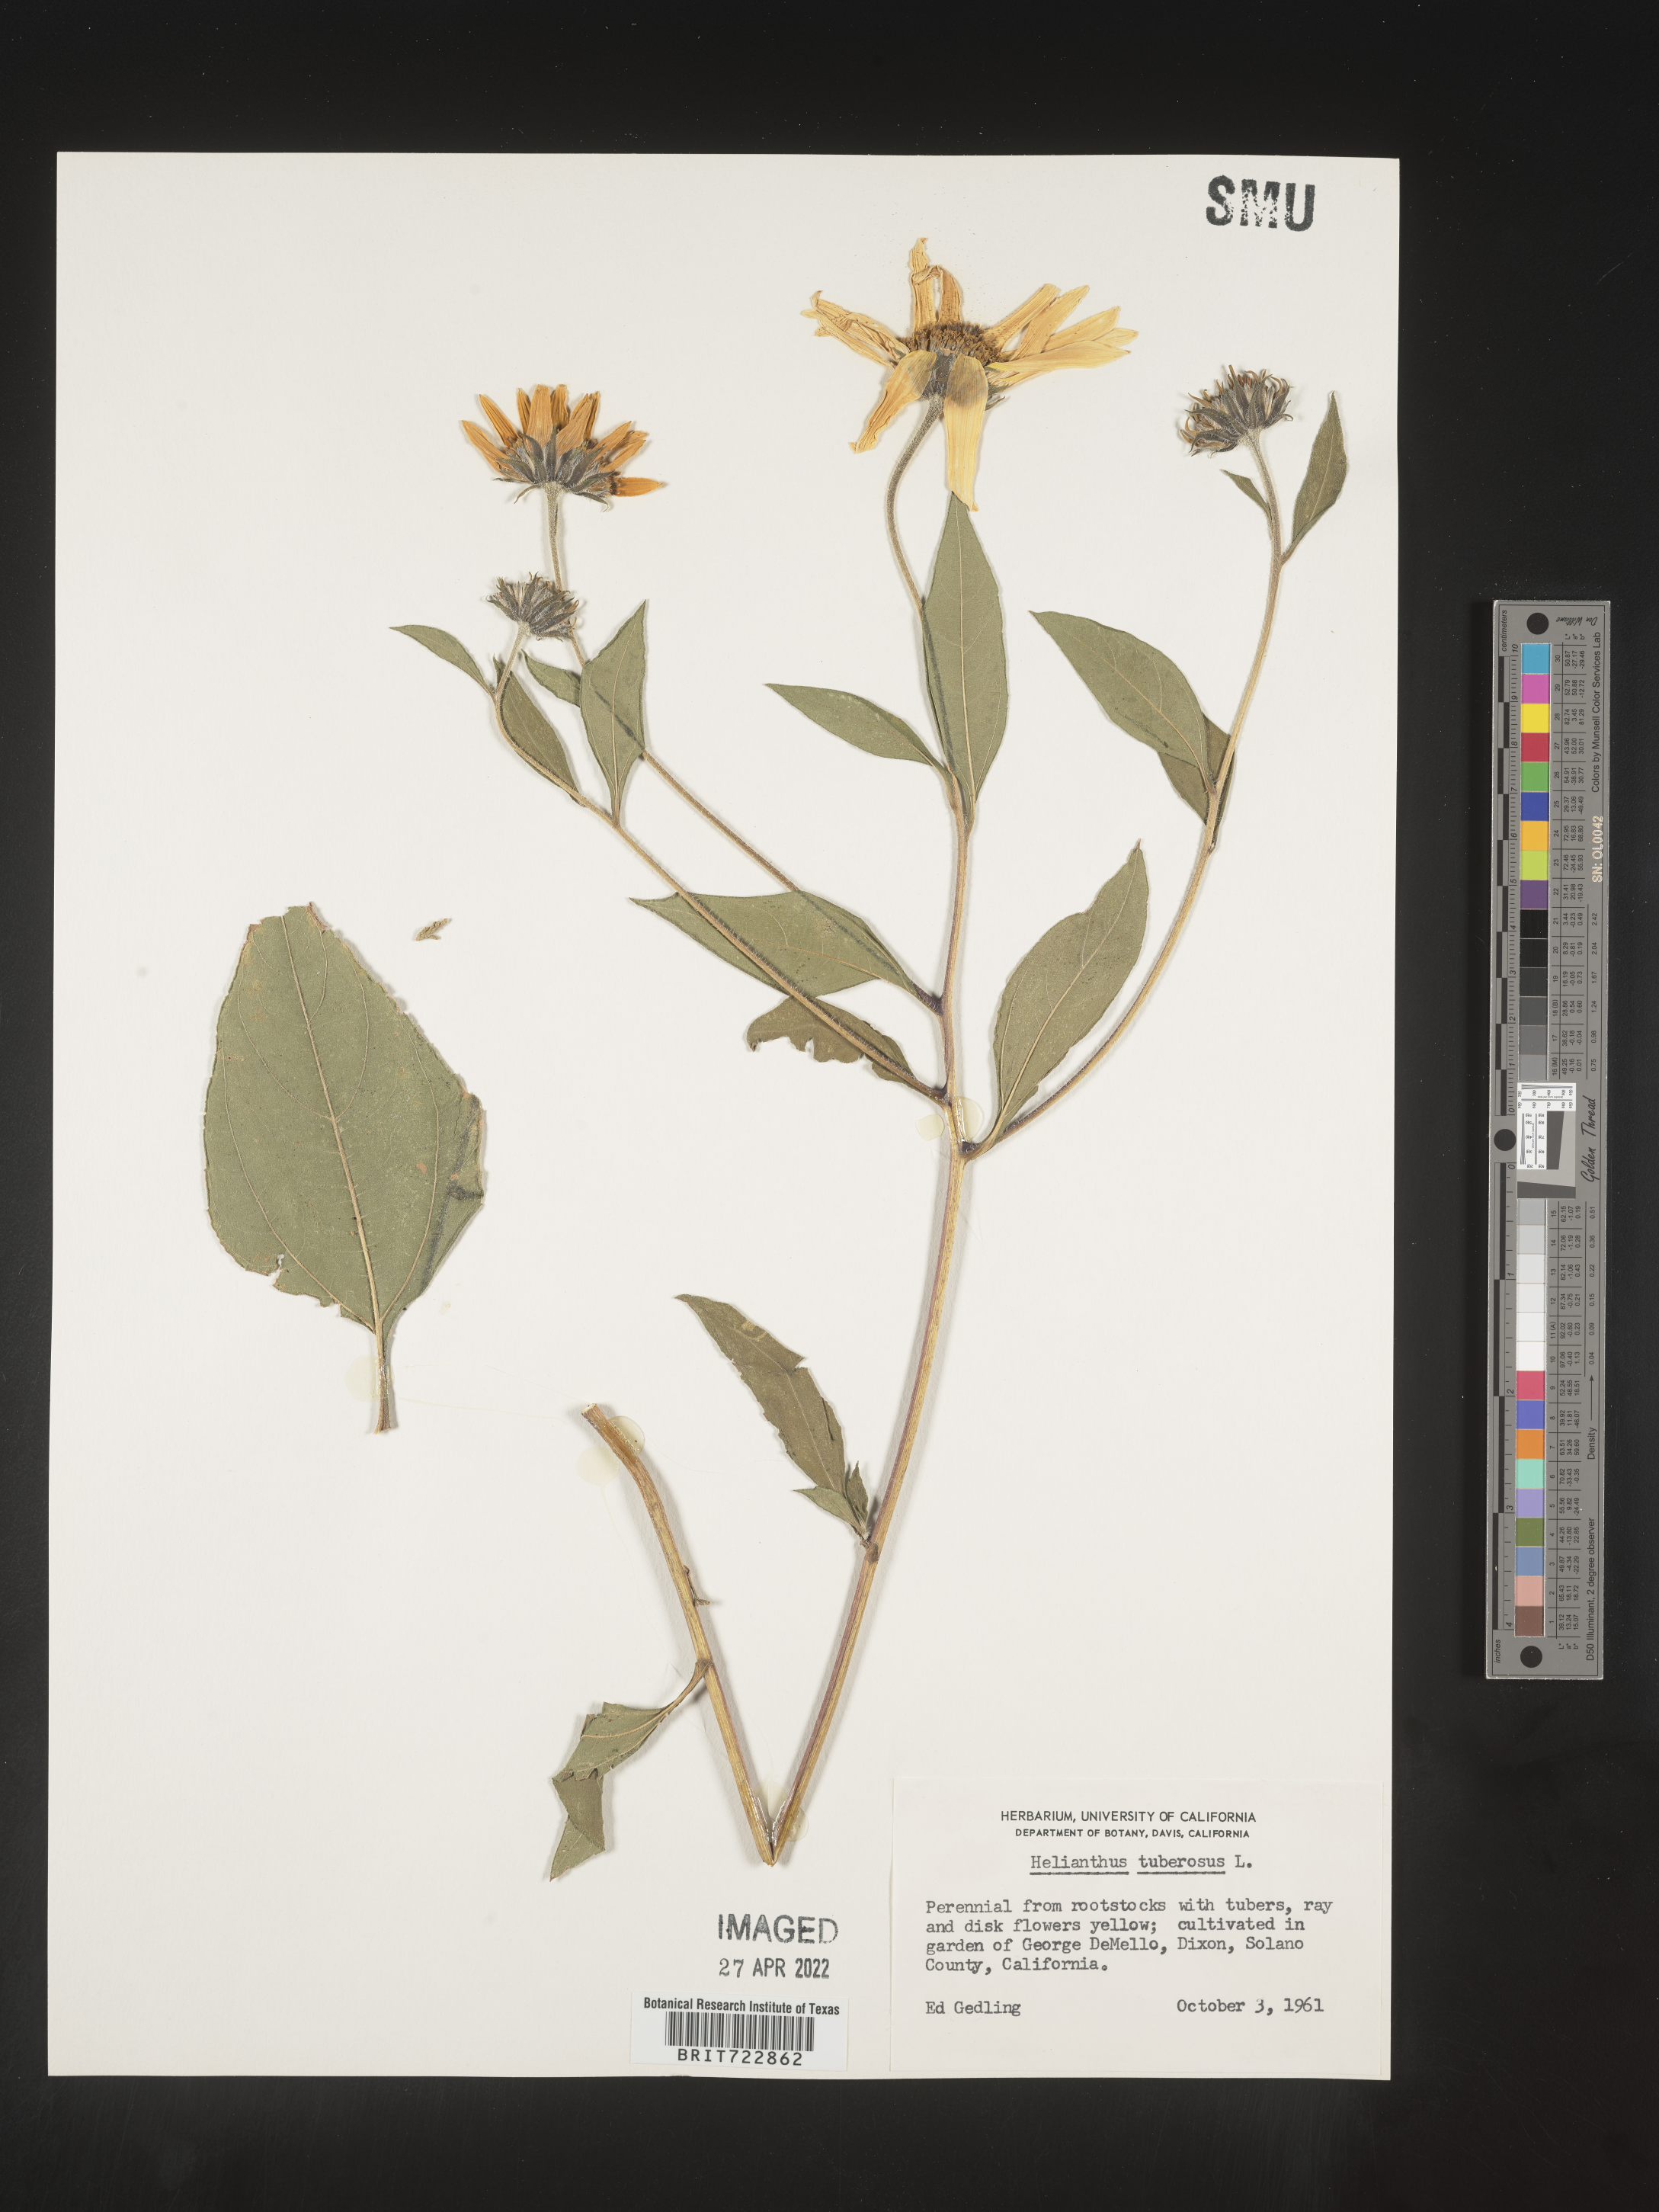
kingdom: Plantae
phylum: Tracheophyta
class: Magnoliopsida
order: Asterales
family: Asteraceae
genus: Helianthus
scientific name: Helianthus tuberosus
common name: Jerusalem artichoke
